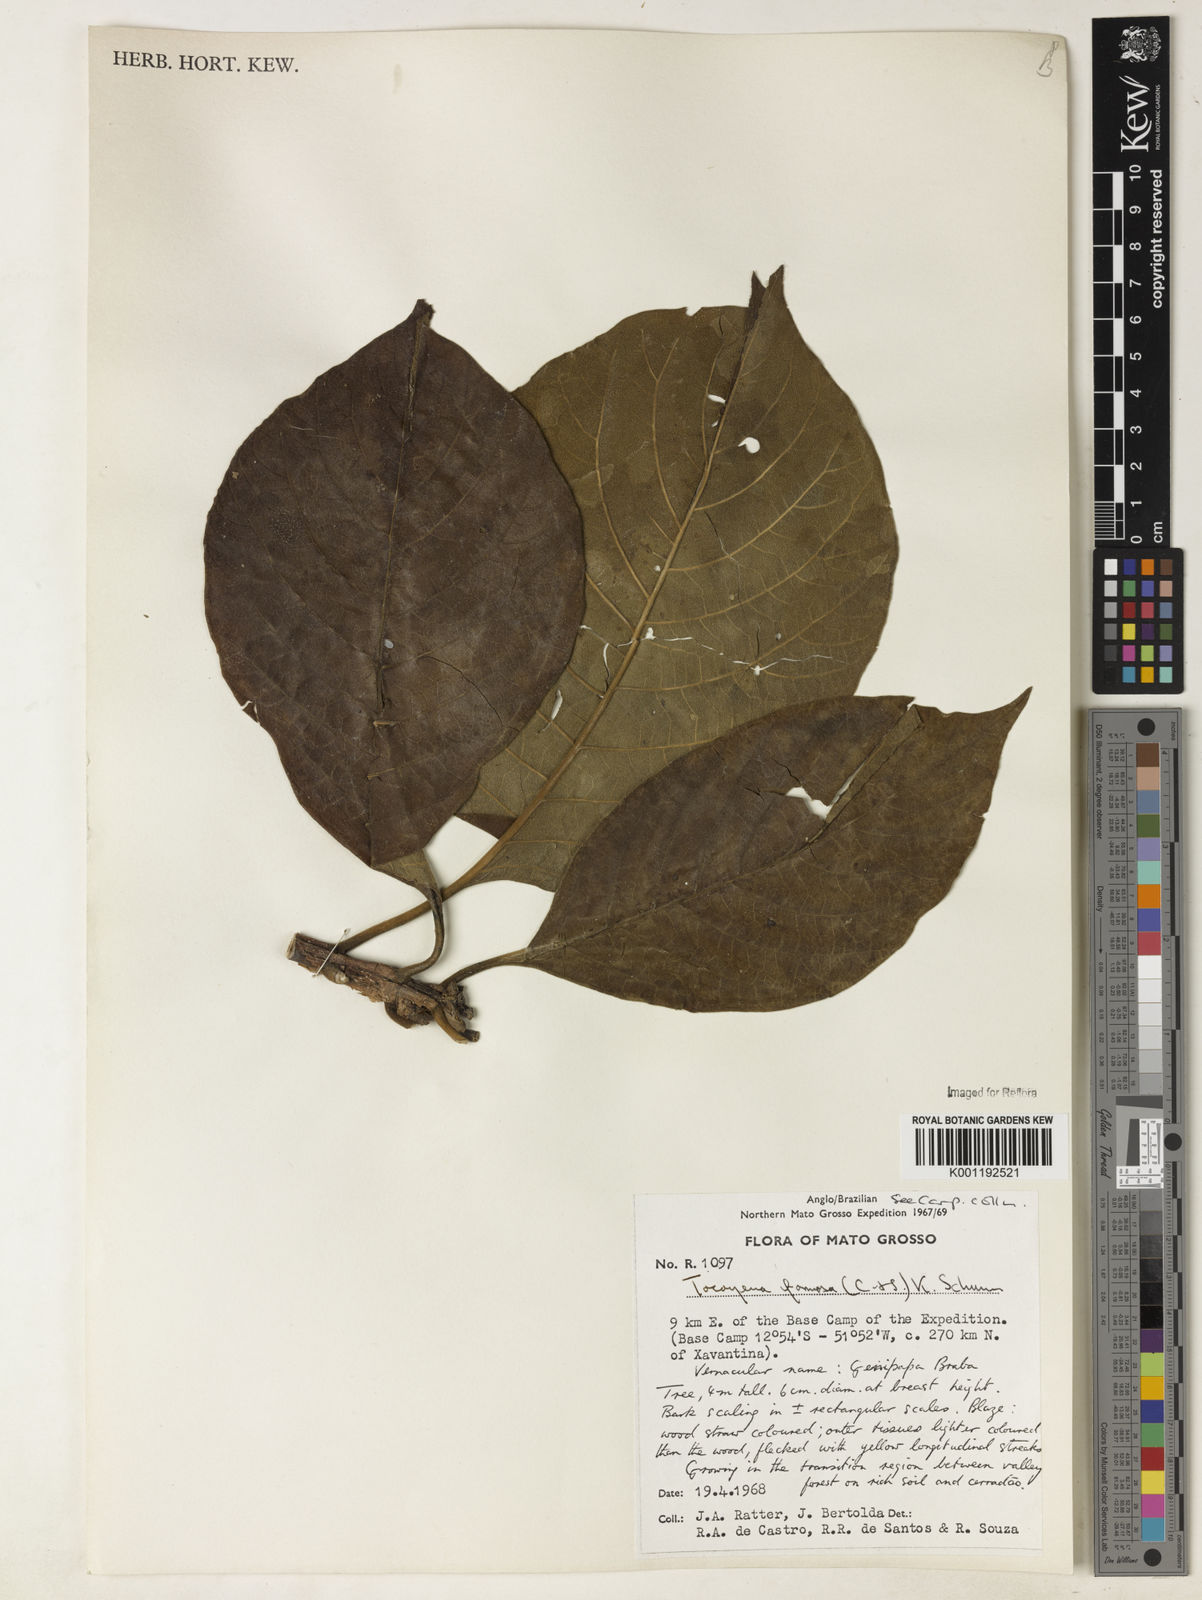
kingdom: Plantae
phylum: Tracheophyta
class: Magnoliopsida
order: Gentianales
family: Rubiaceae
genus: Tocoyena
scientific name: Tocoyena formosa
